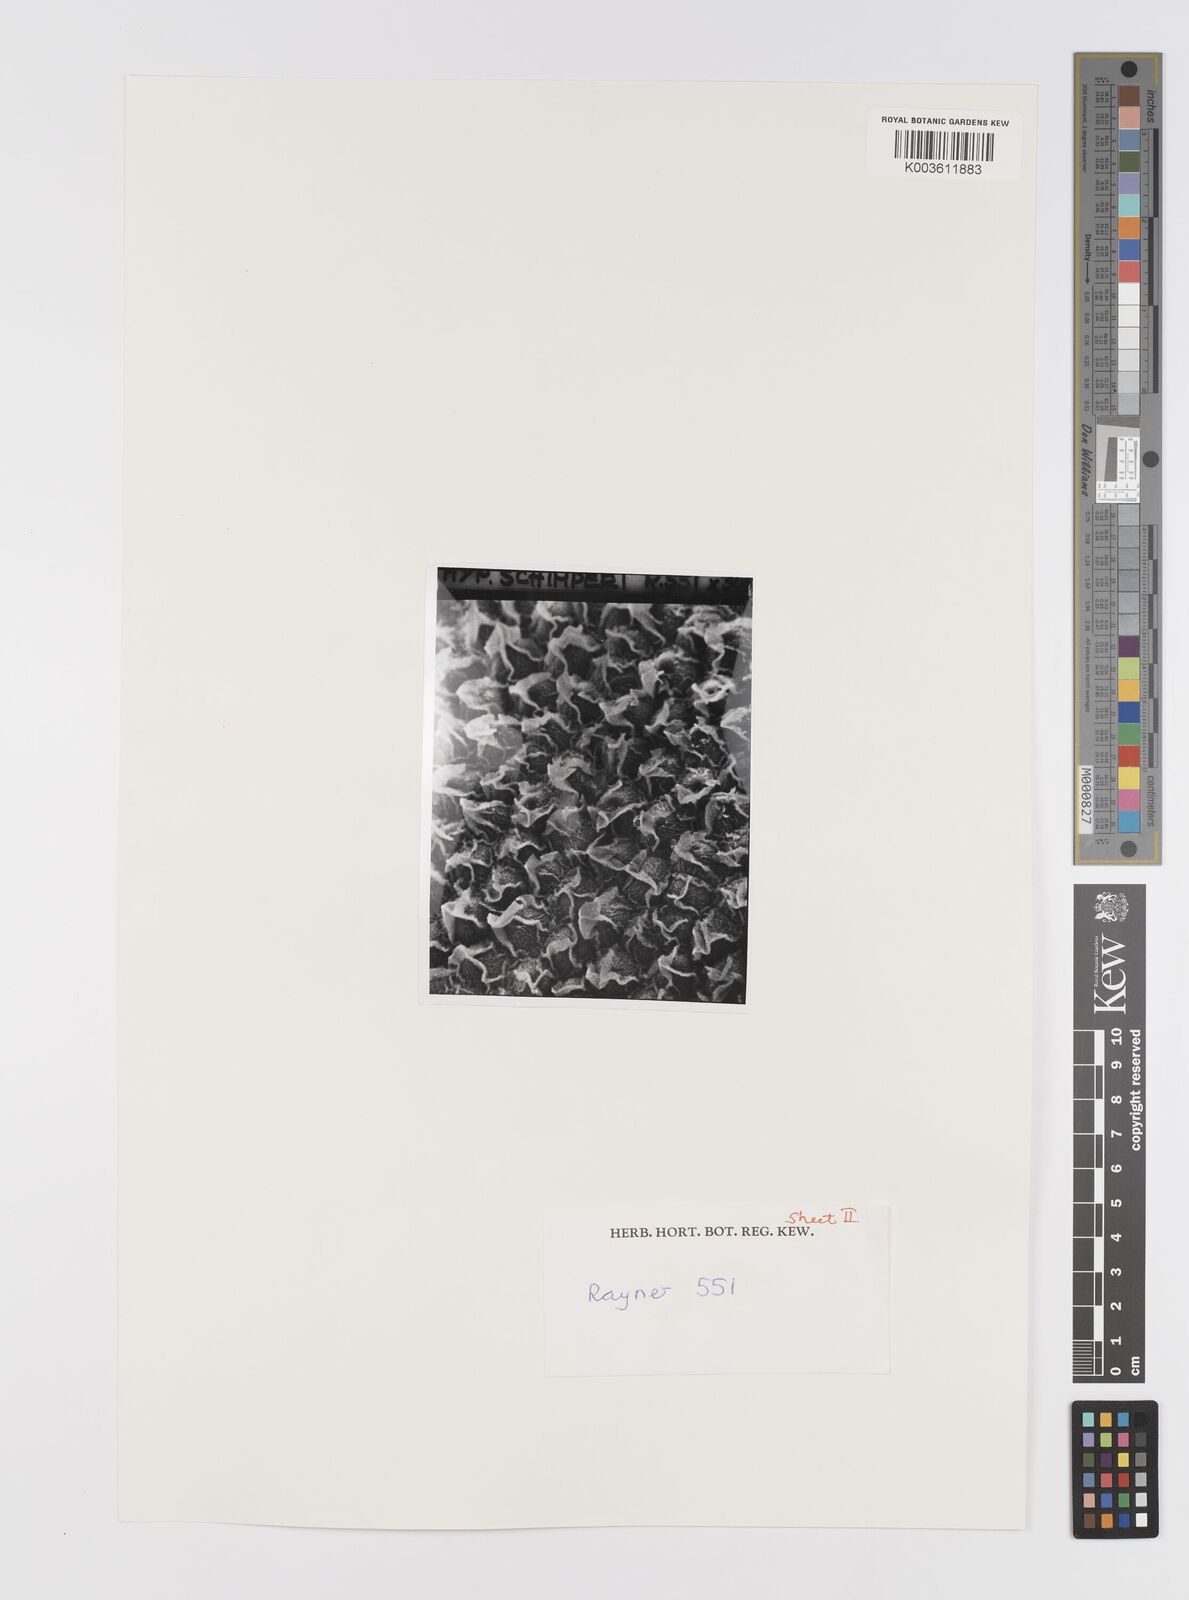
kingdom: Plantae
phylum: Tracheophyta
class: Liliopsida
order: Asparagales
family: Hypoxidaceae
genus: Hypoxis
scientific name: Hypoxis schimperi
